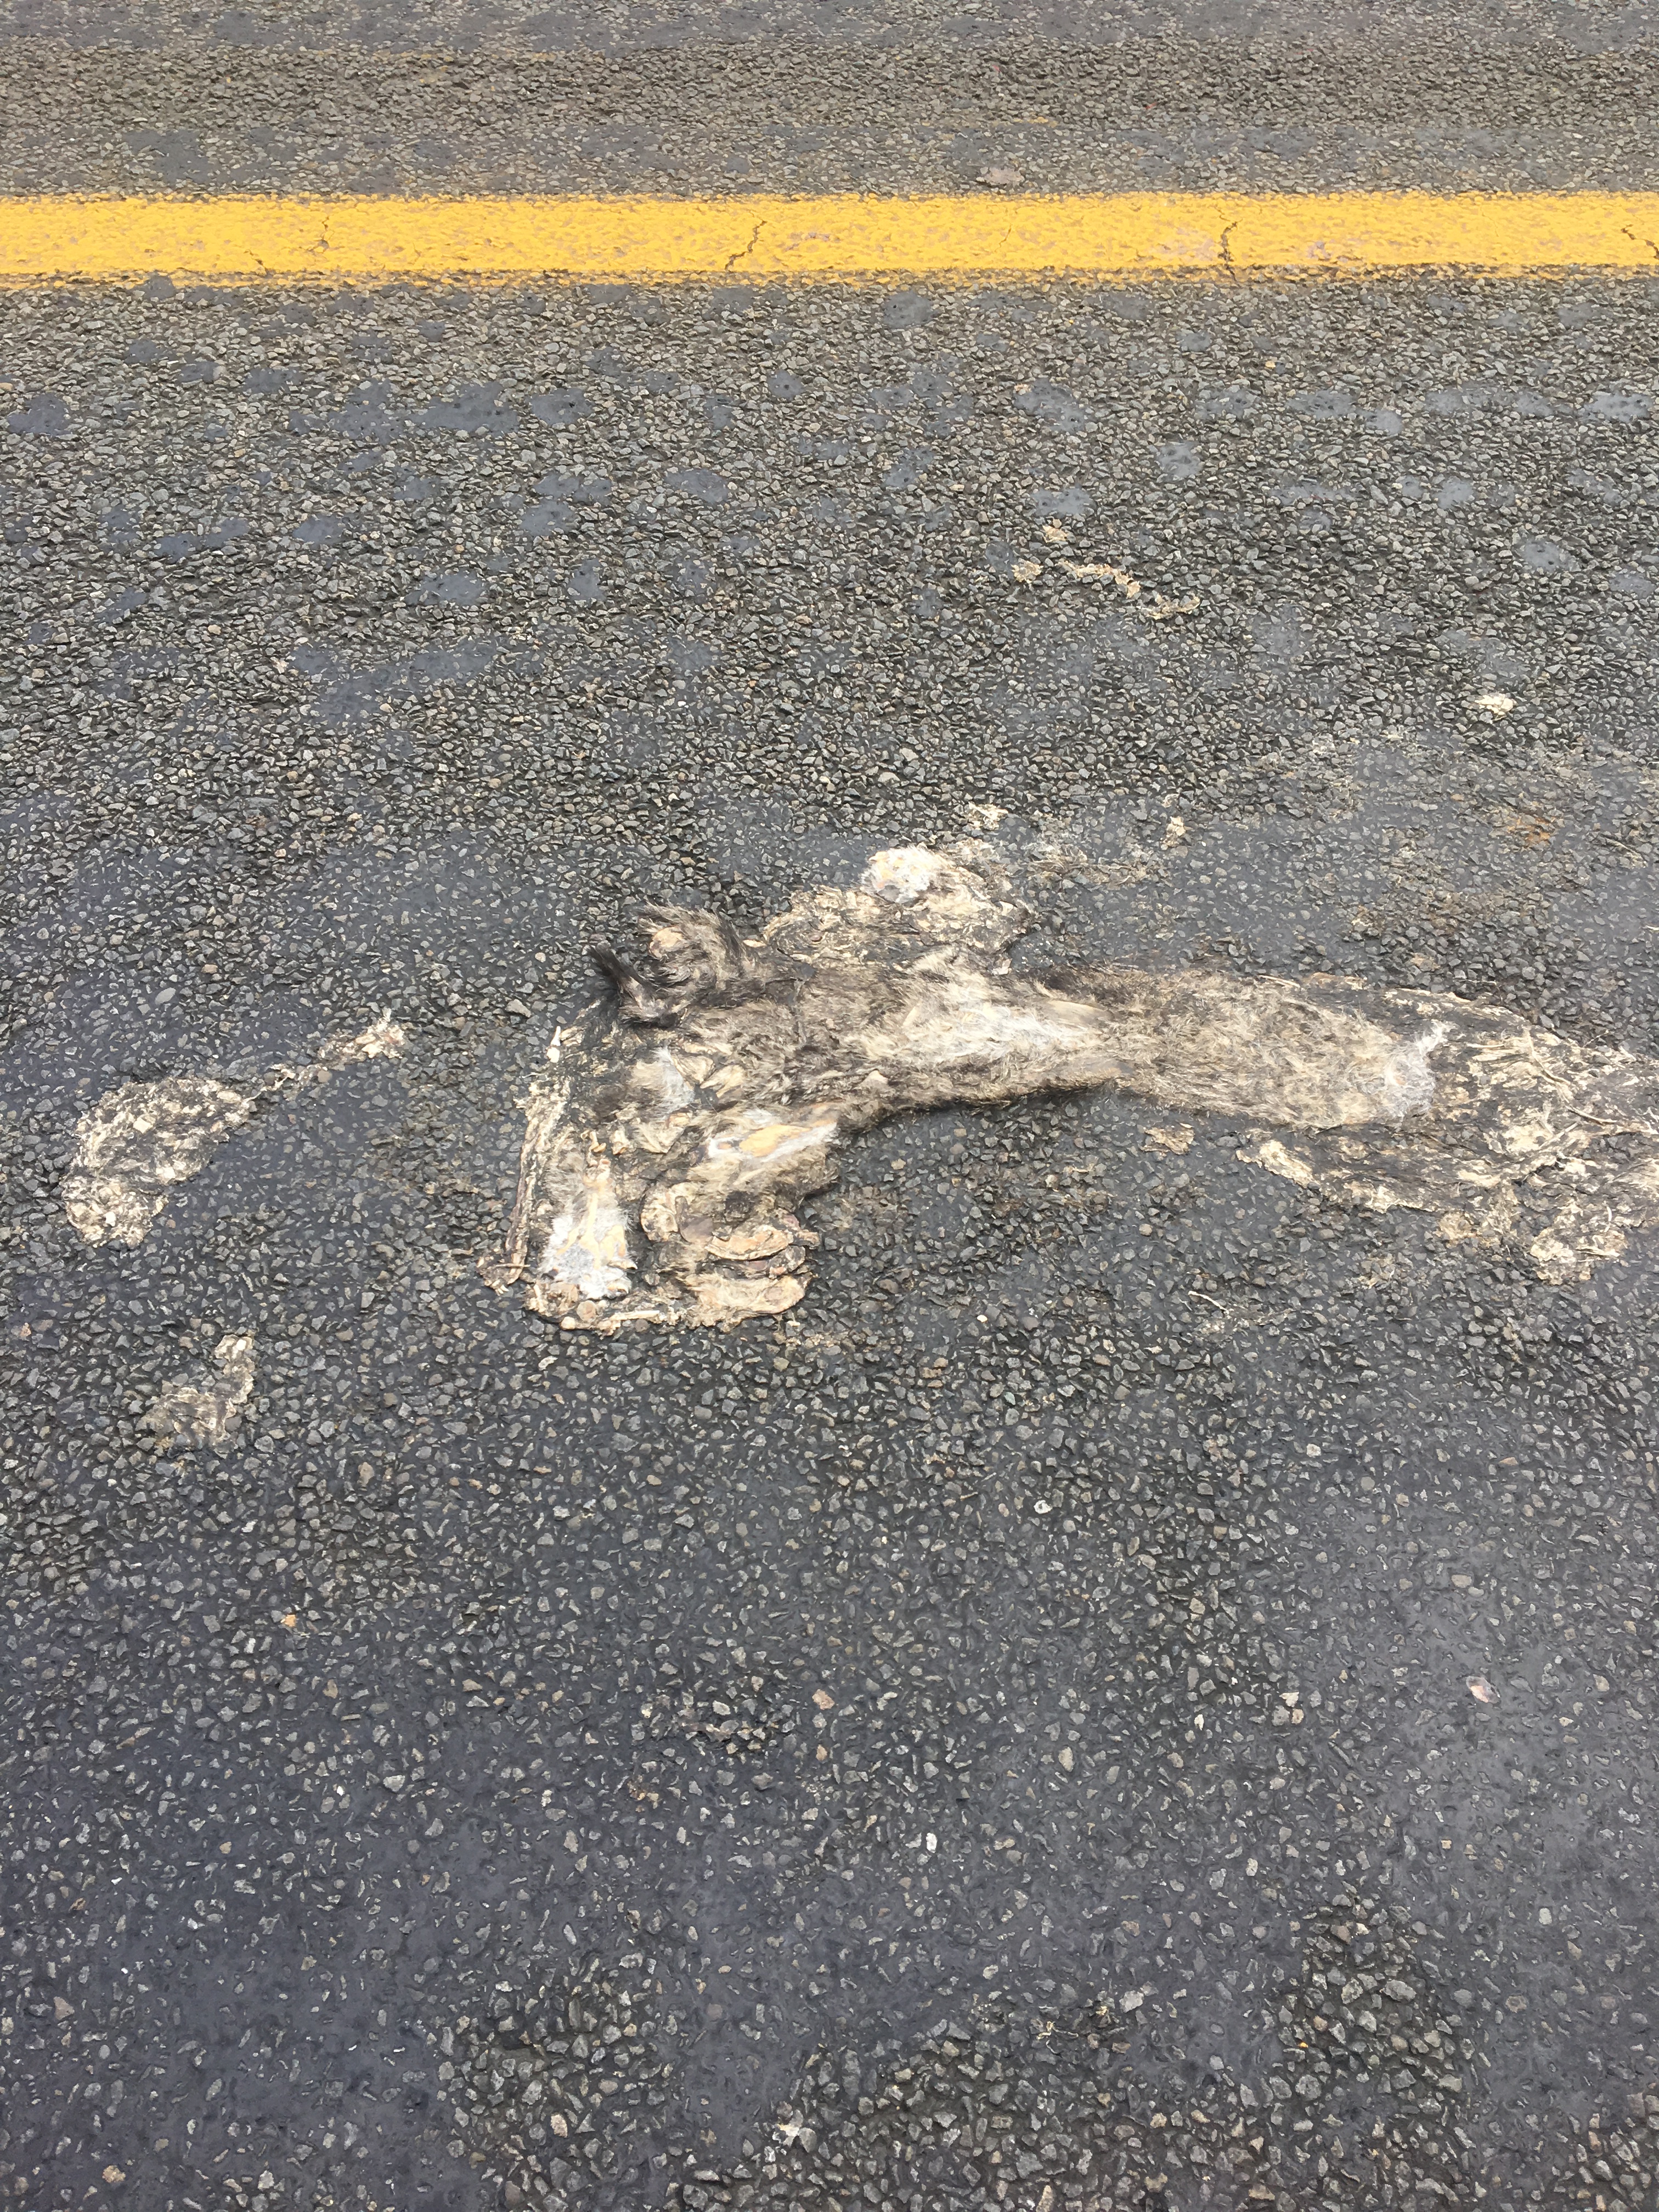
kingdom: Animalia
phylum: Chordata
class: Mammalia
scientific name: Mammalia
